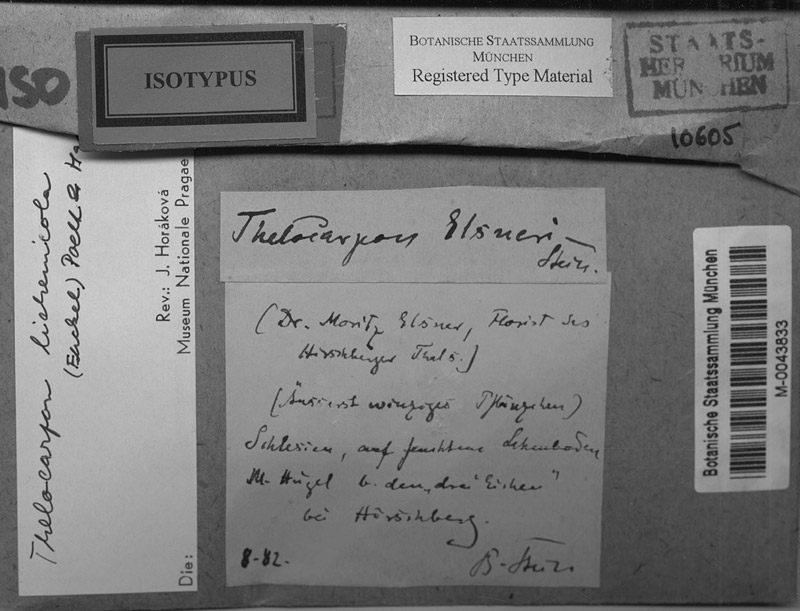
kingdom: Fungi
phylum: Ascomycota
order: Thelocarpales
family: Thelocarpaceae
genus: Thelocarpon
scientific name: Thelocarpon lichenicola
